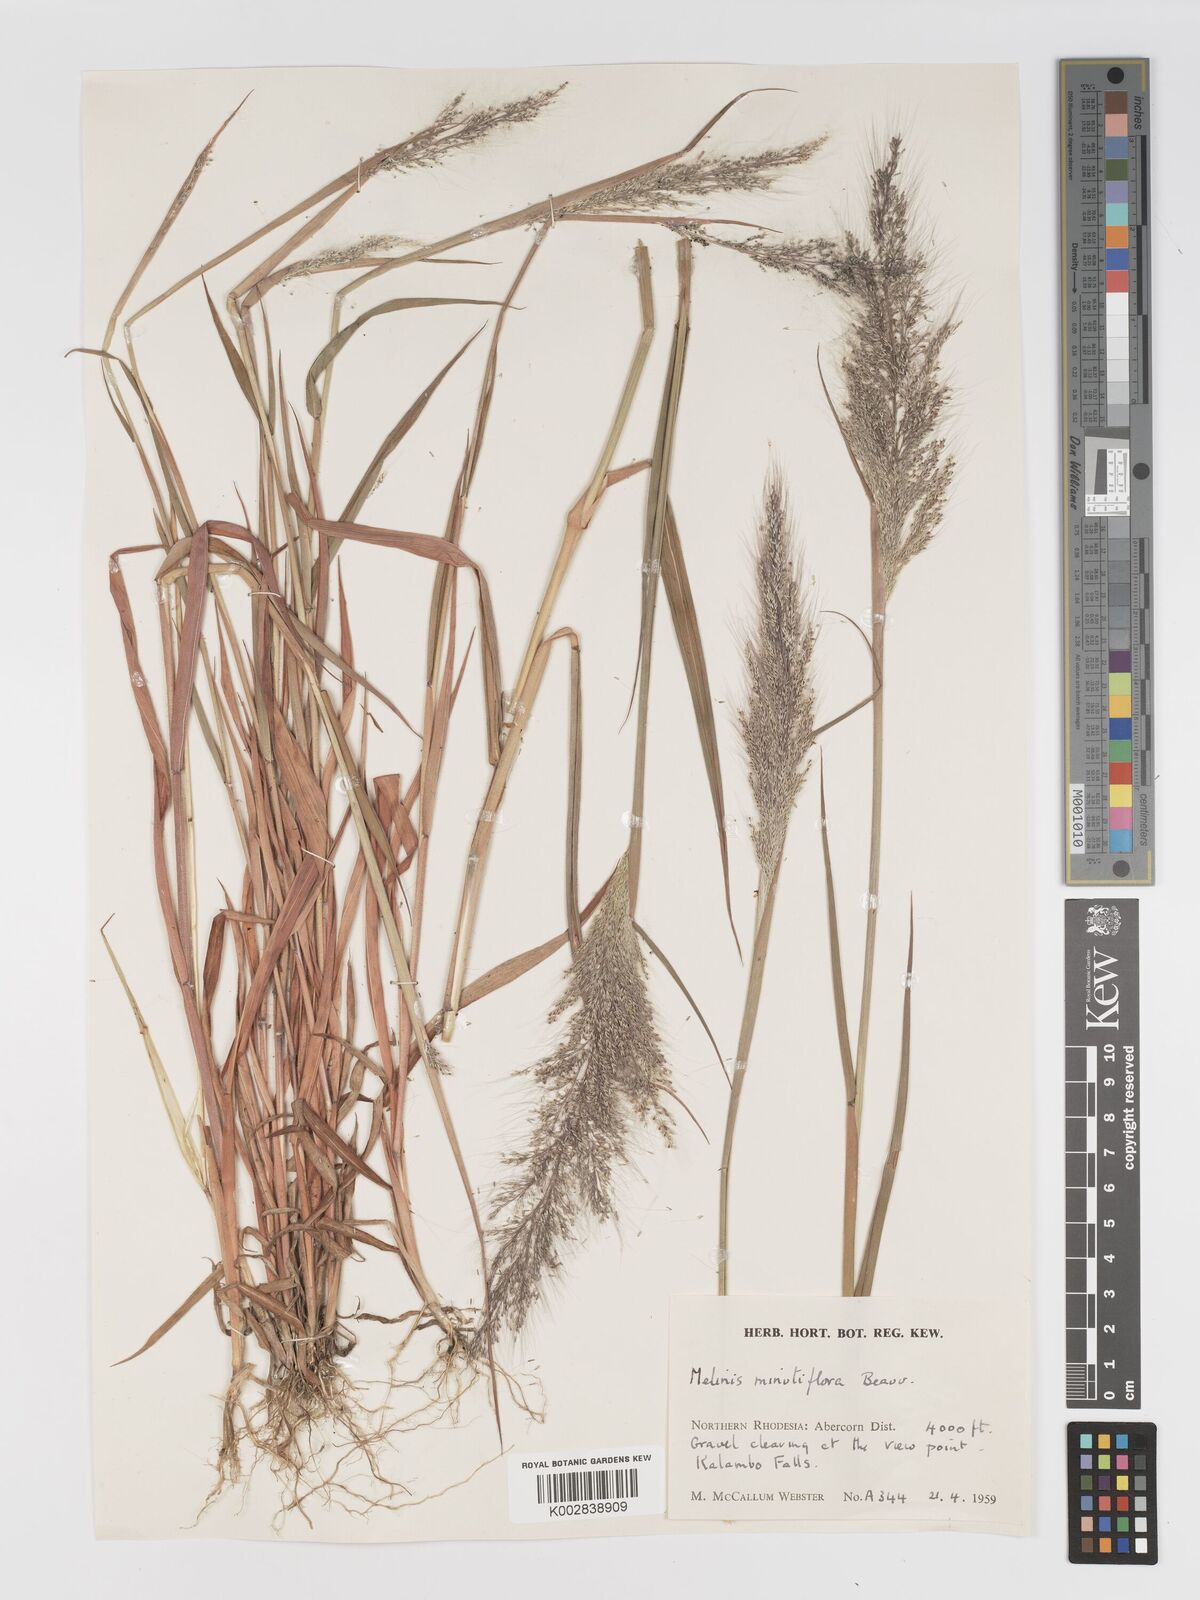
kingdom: Plantae
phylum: Tracheophyta
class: Liliopsida
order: Poales
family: Poaceae
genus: Melinis
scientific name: Melinis macrochaeta
